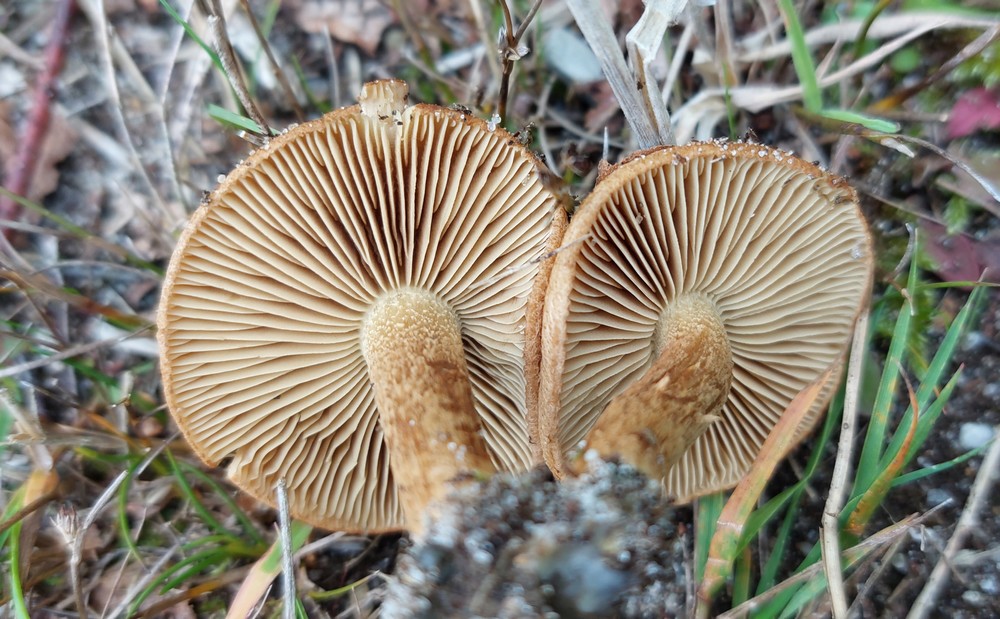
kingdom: Fungi
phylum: Basidiomycota
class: Agaricomycetes
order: Agaricales
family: Inocybaceae
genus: Inocybe
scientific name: Inocybe dulcamara
